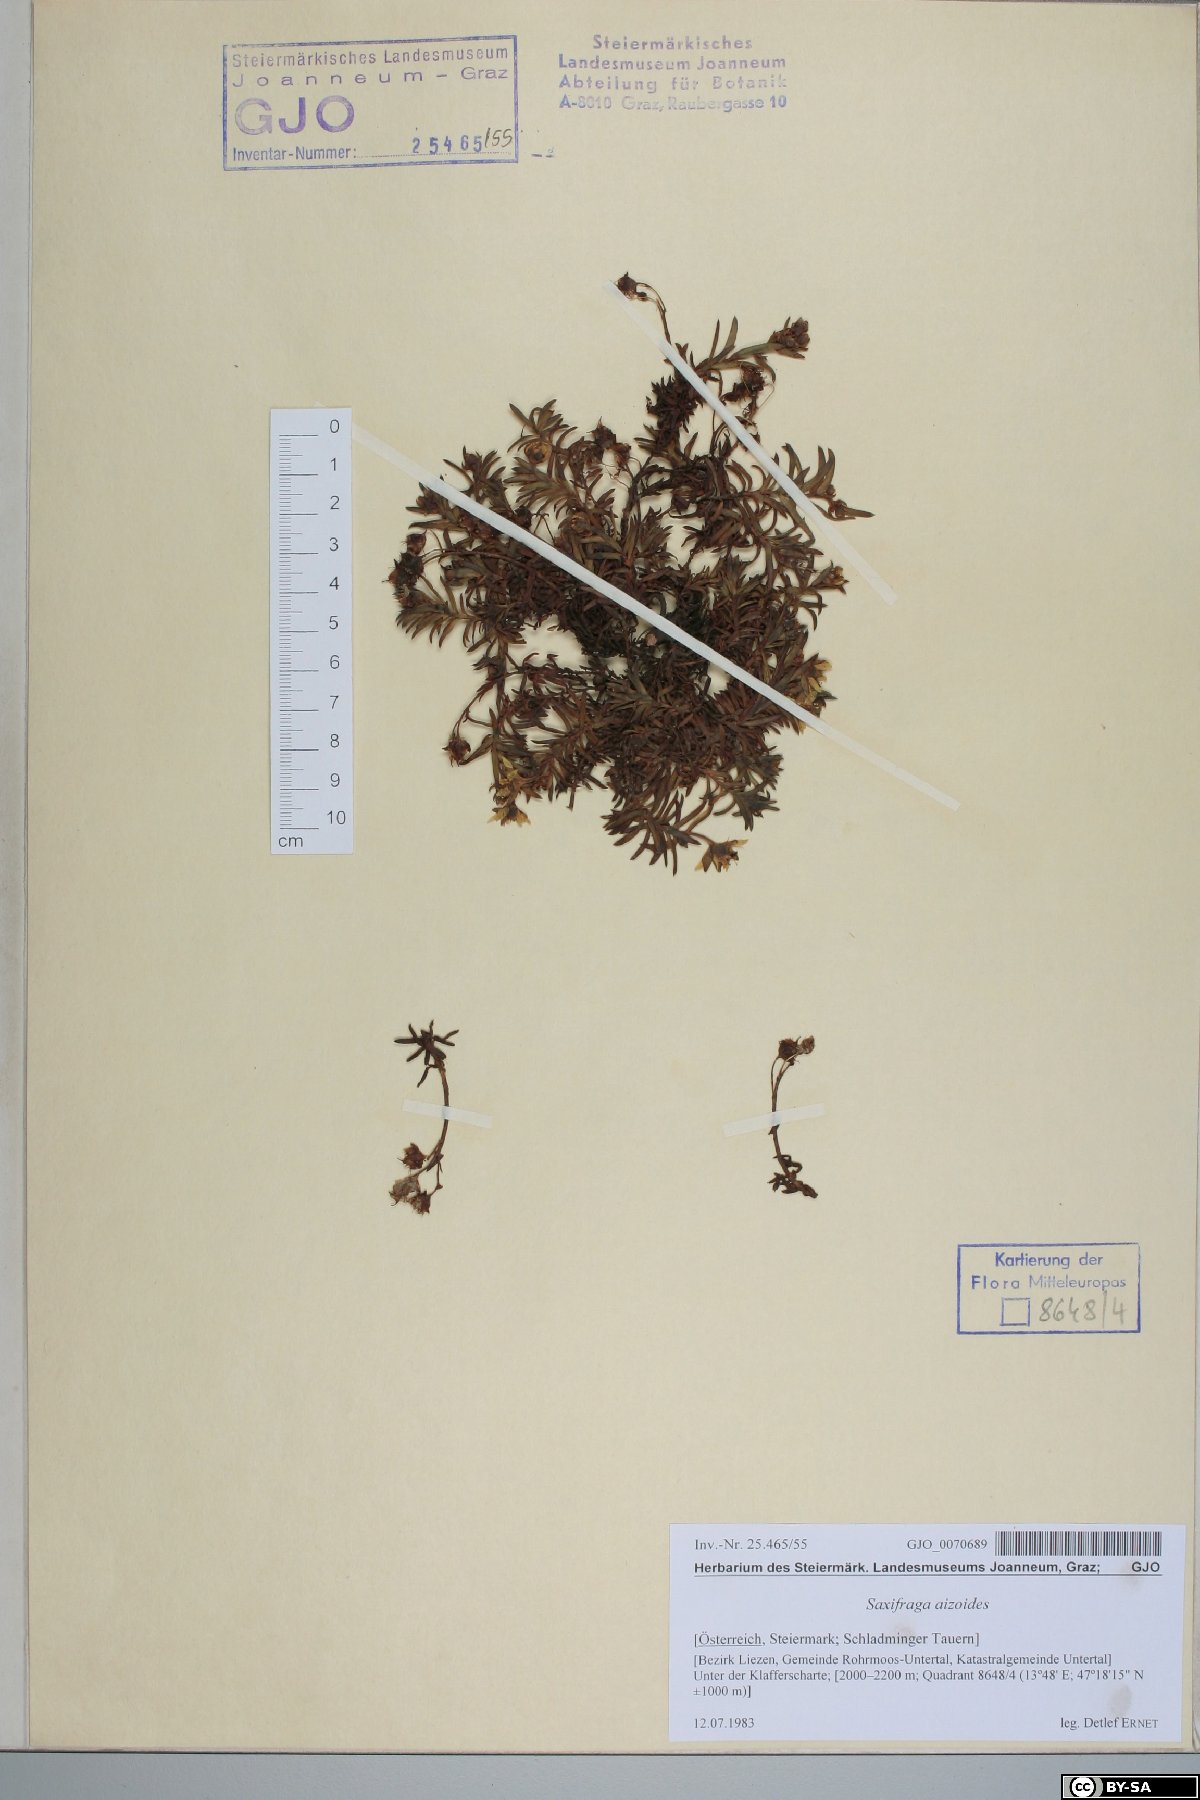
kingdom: Plantae
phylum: Tracheophyta
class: Magnoliopsida
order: Saxifragales
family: Saxifragaceae
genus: Saxifraga
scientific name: Saxifraga aizoides
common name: Yellow mountain saxifrage
